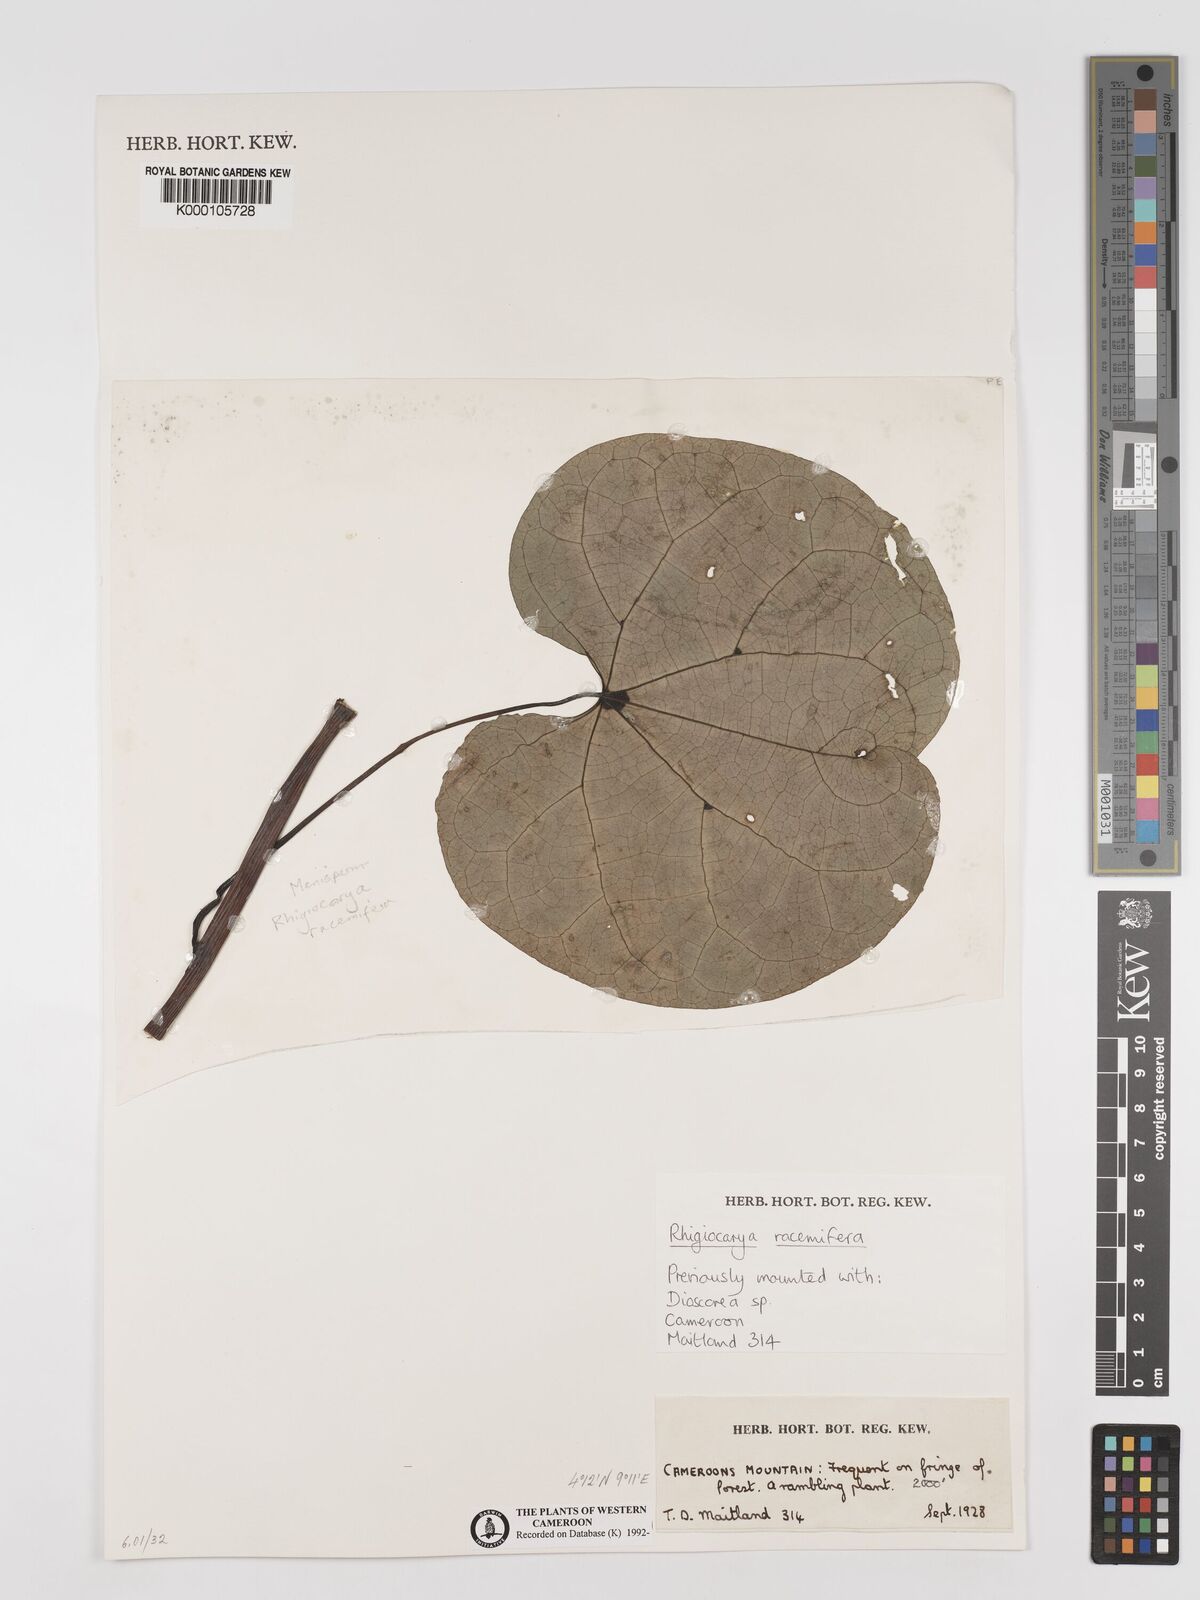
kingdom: Plantae
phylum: Tracheophyta
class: Magnoliopsida
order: Ranunculales
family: Menispermaceae
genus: Rhigiocarya
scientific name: Rhigiocarya racemifera
